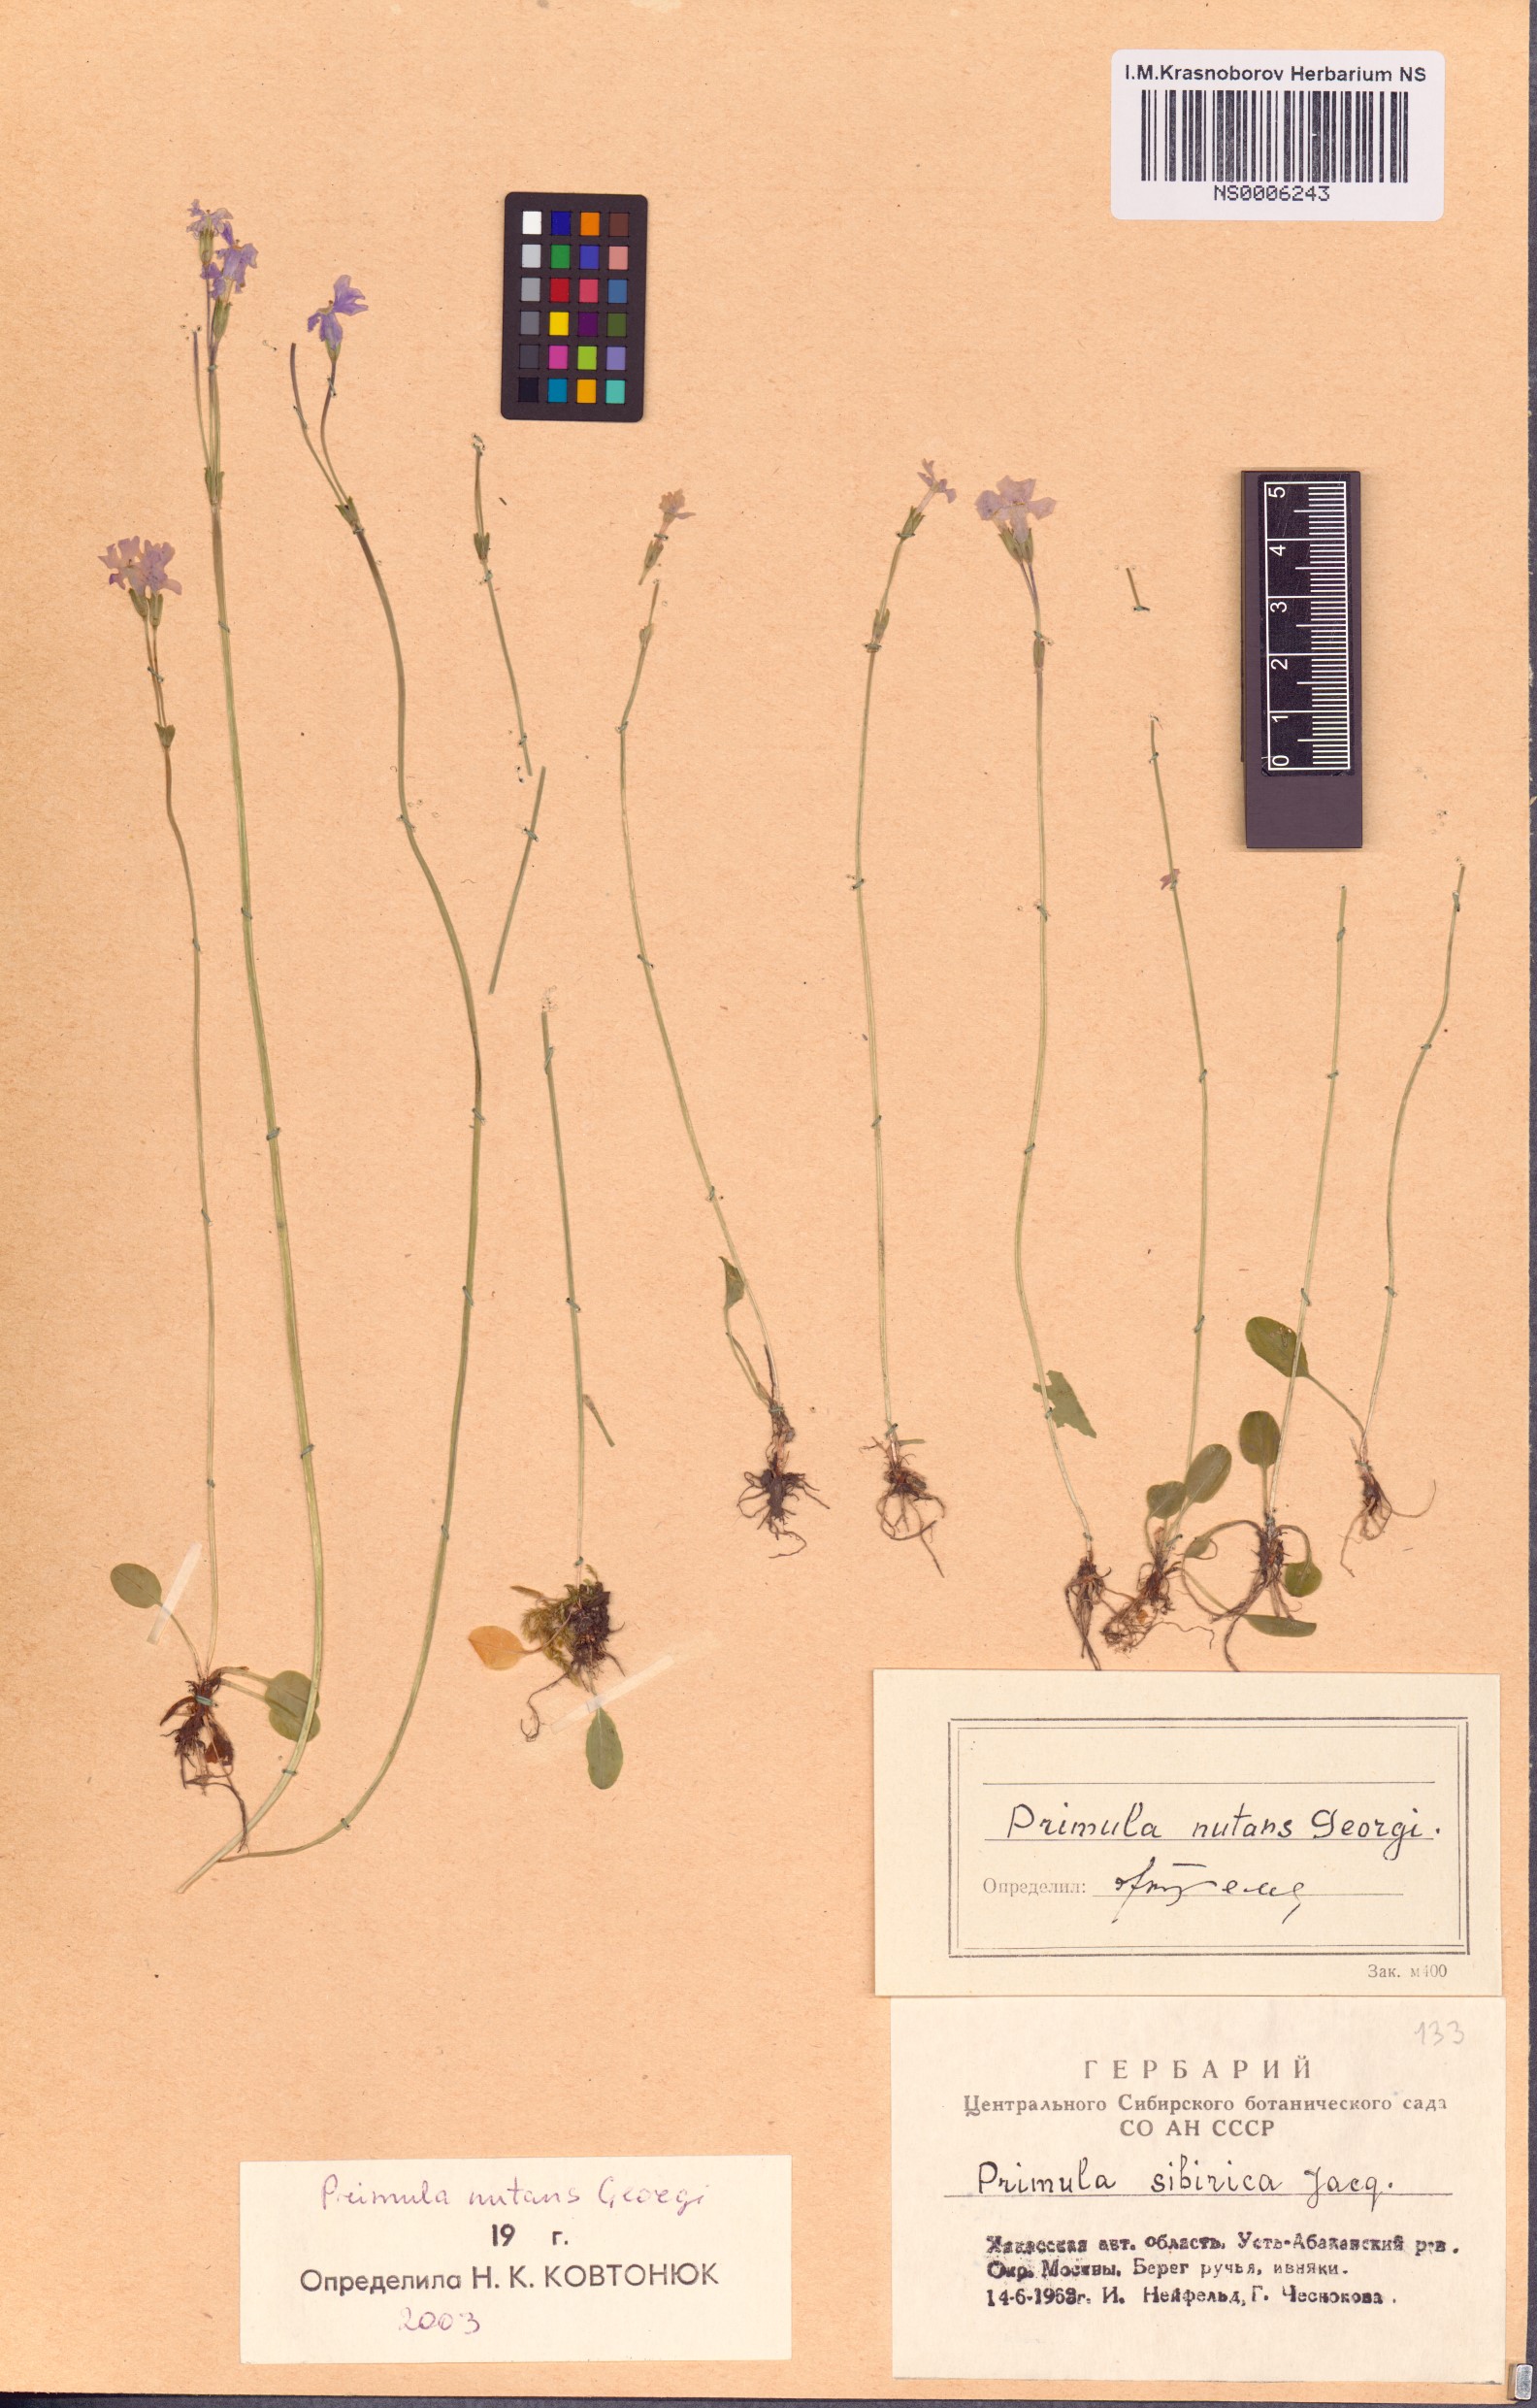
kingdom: Plantae
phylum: Tracheophyta
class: Magnoliopsida
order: Ericales
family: Primulaceae
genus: Primula
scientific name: Primula nutans
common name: Siberian primrose
